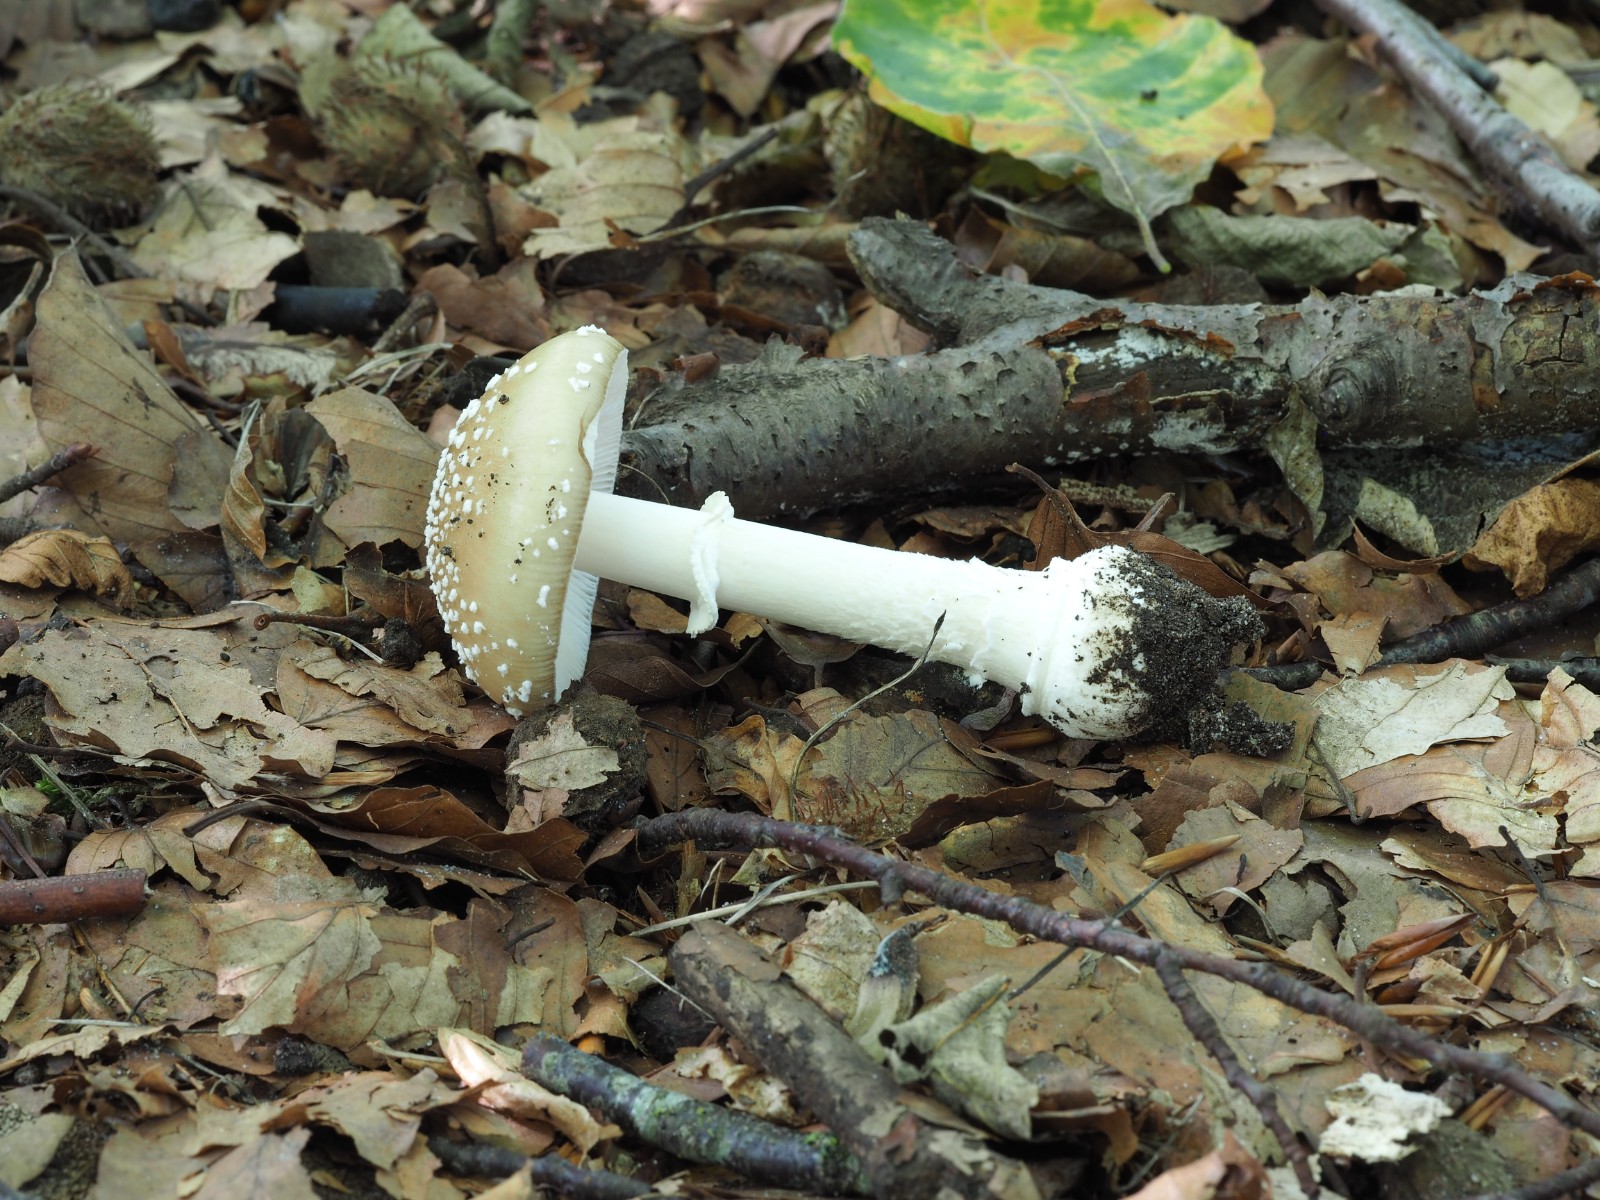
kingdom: Fungi
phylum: Basidiomycota
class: Agaricomycetes
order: Agaricales
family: Amanitaceae
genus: Amanita
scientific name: Amanita pantherina
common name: panter-fluesvamp
